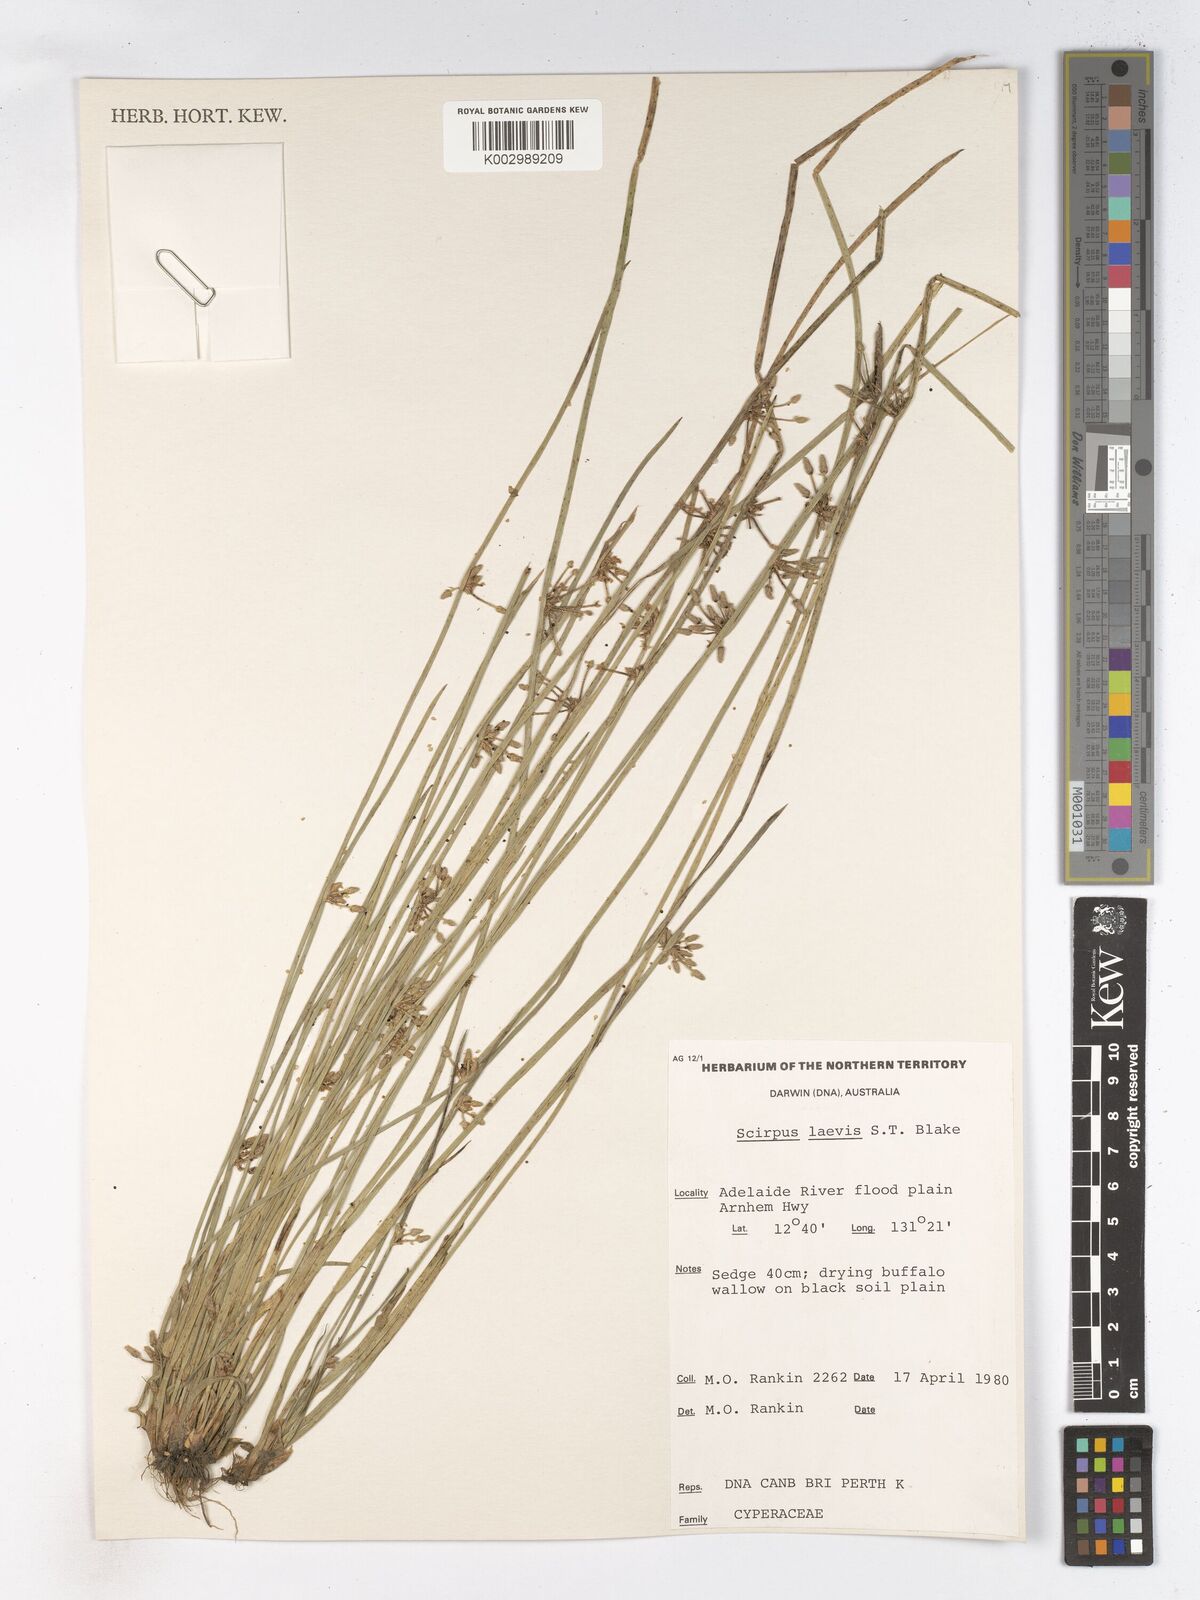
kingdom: Plantae
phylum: Tracheophyta
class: Liliopsida
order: Poales
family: Cyperaceae
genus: Schoenoplectiella
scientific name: Schoenoplectiella laevis
